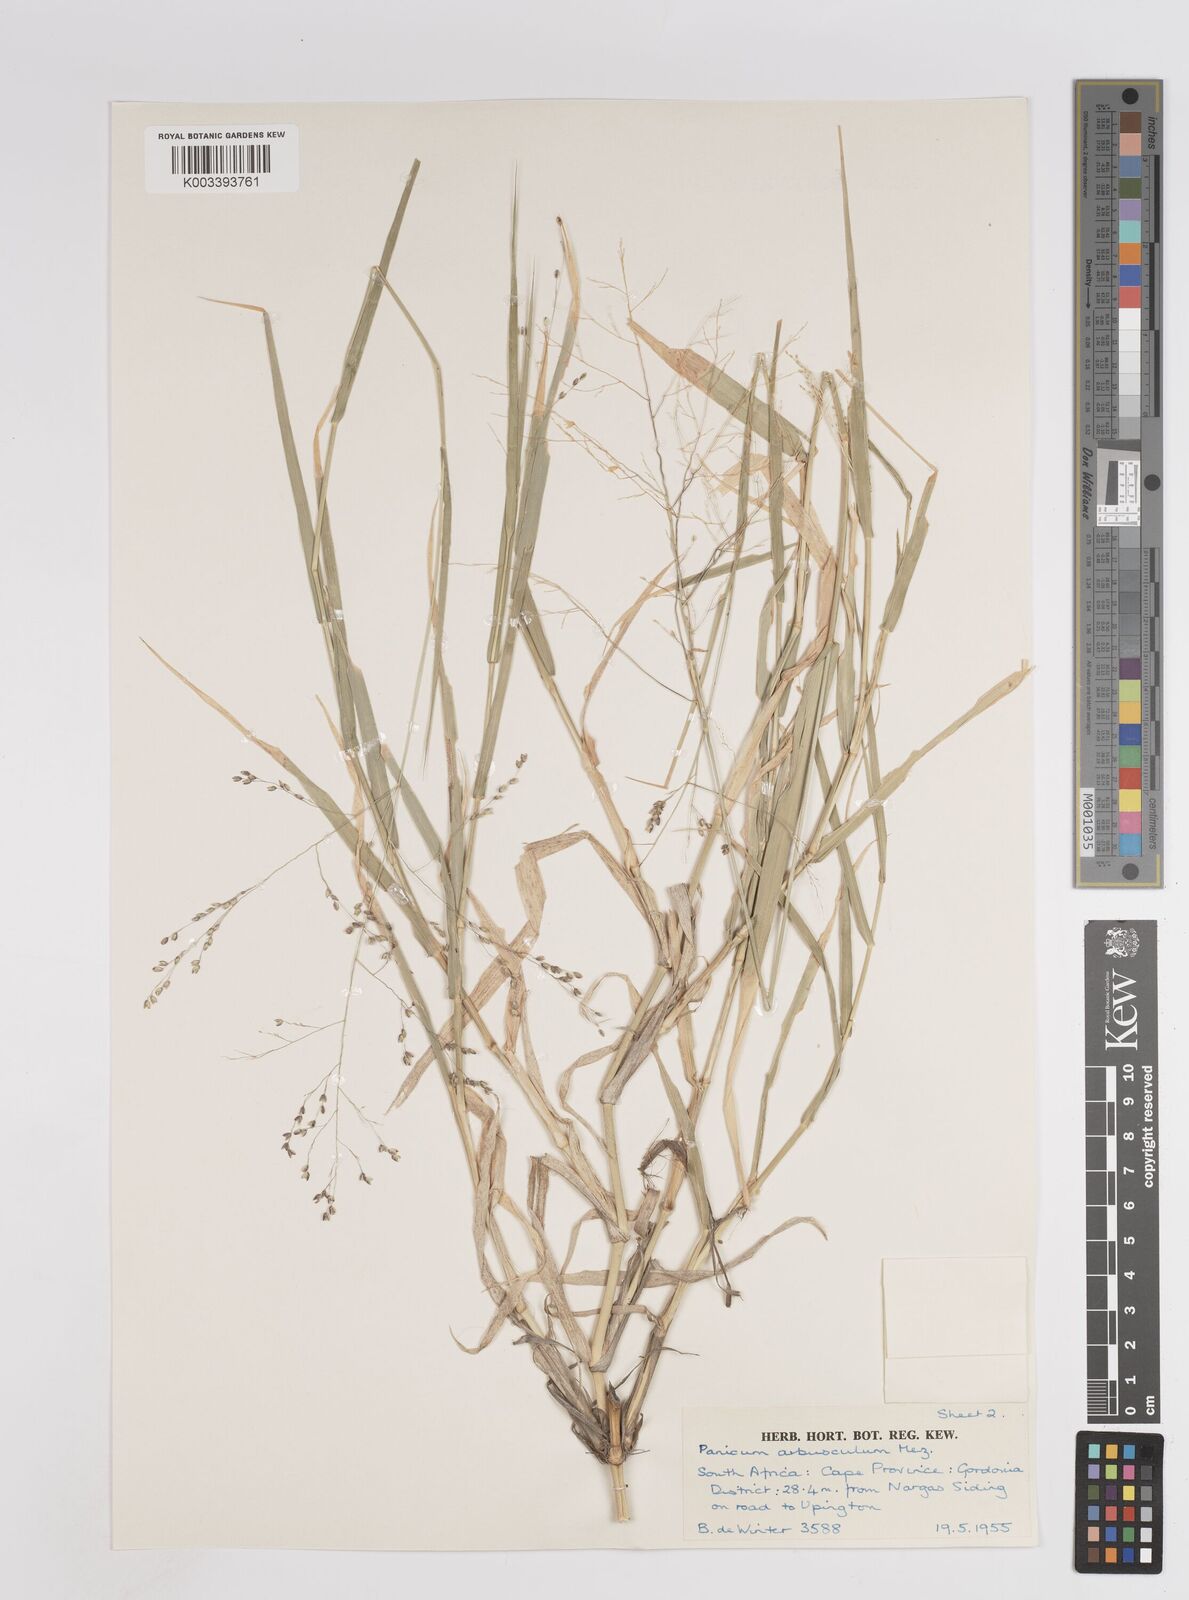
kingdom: Plantae
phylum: Tracheophyta
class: Liliopsida
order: Poales
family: Poaceae
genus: Isachne
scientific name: Isachne rigens
